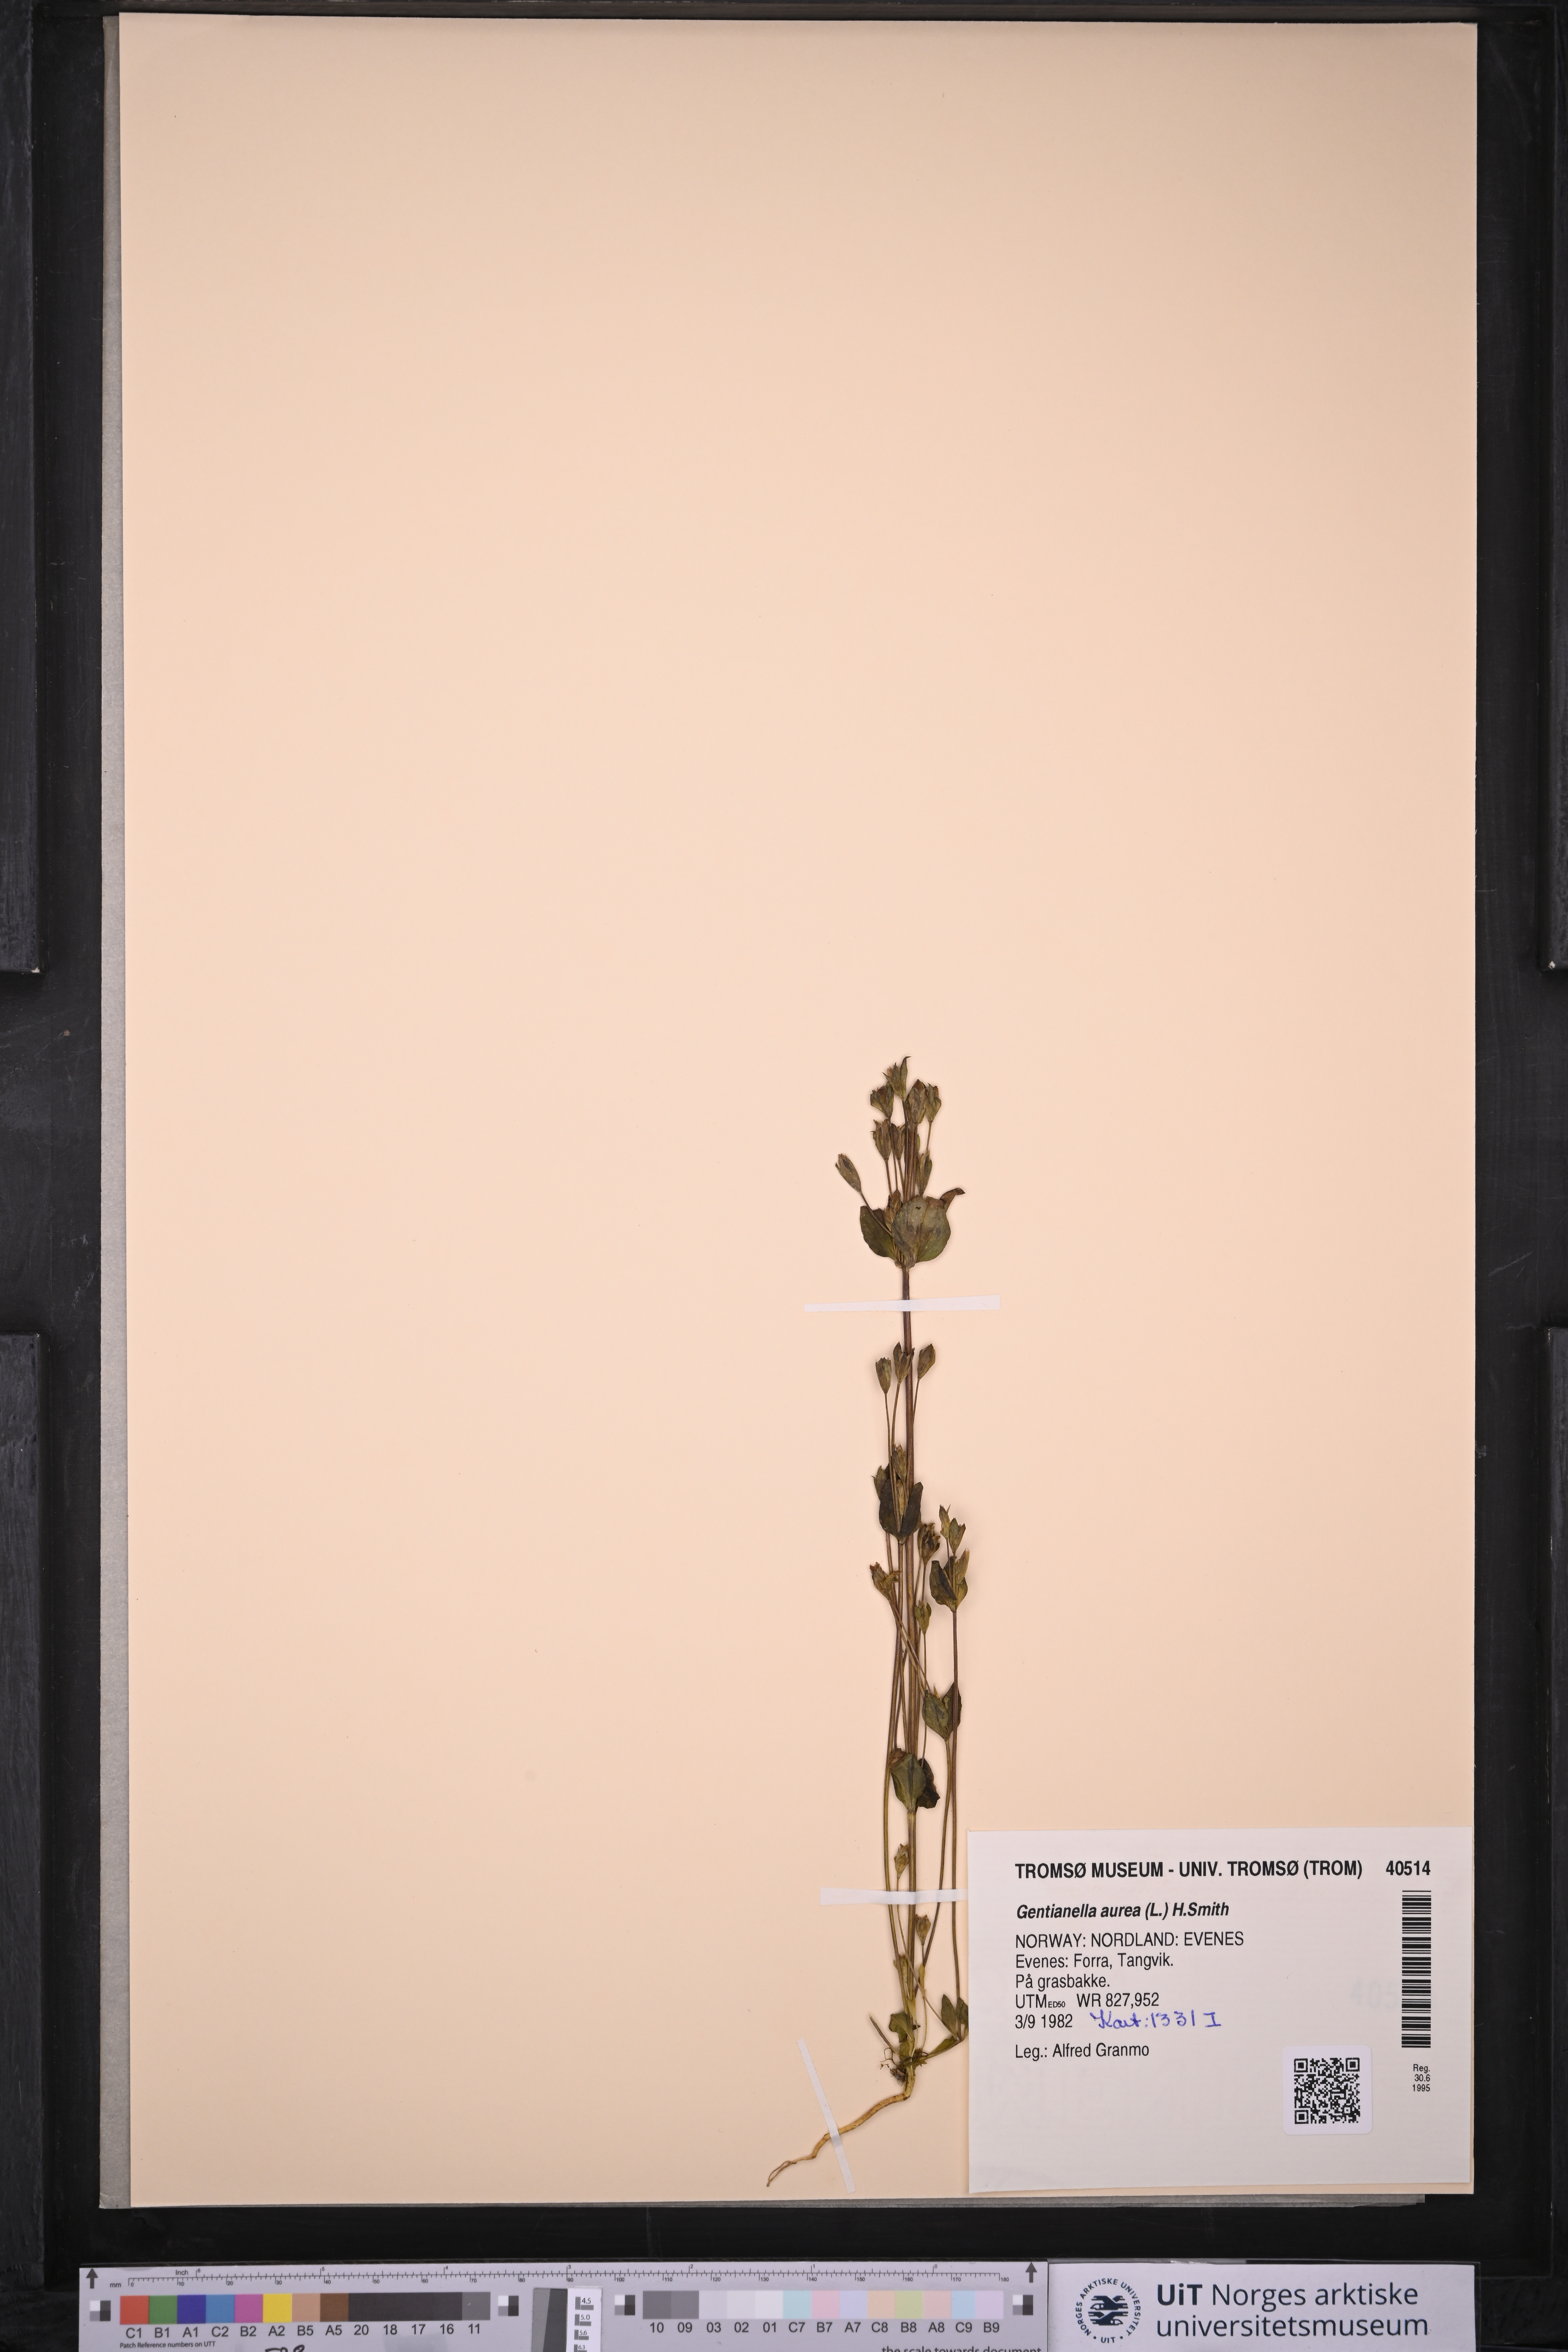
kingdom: Plantae
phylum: Tracheophyta
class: Magnoliopsida
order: Gentianales
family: Gentianaceae
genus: Gentianella
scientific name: Gentianella aurea
